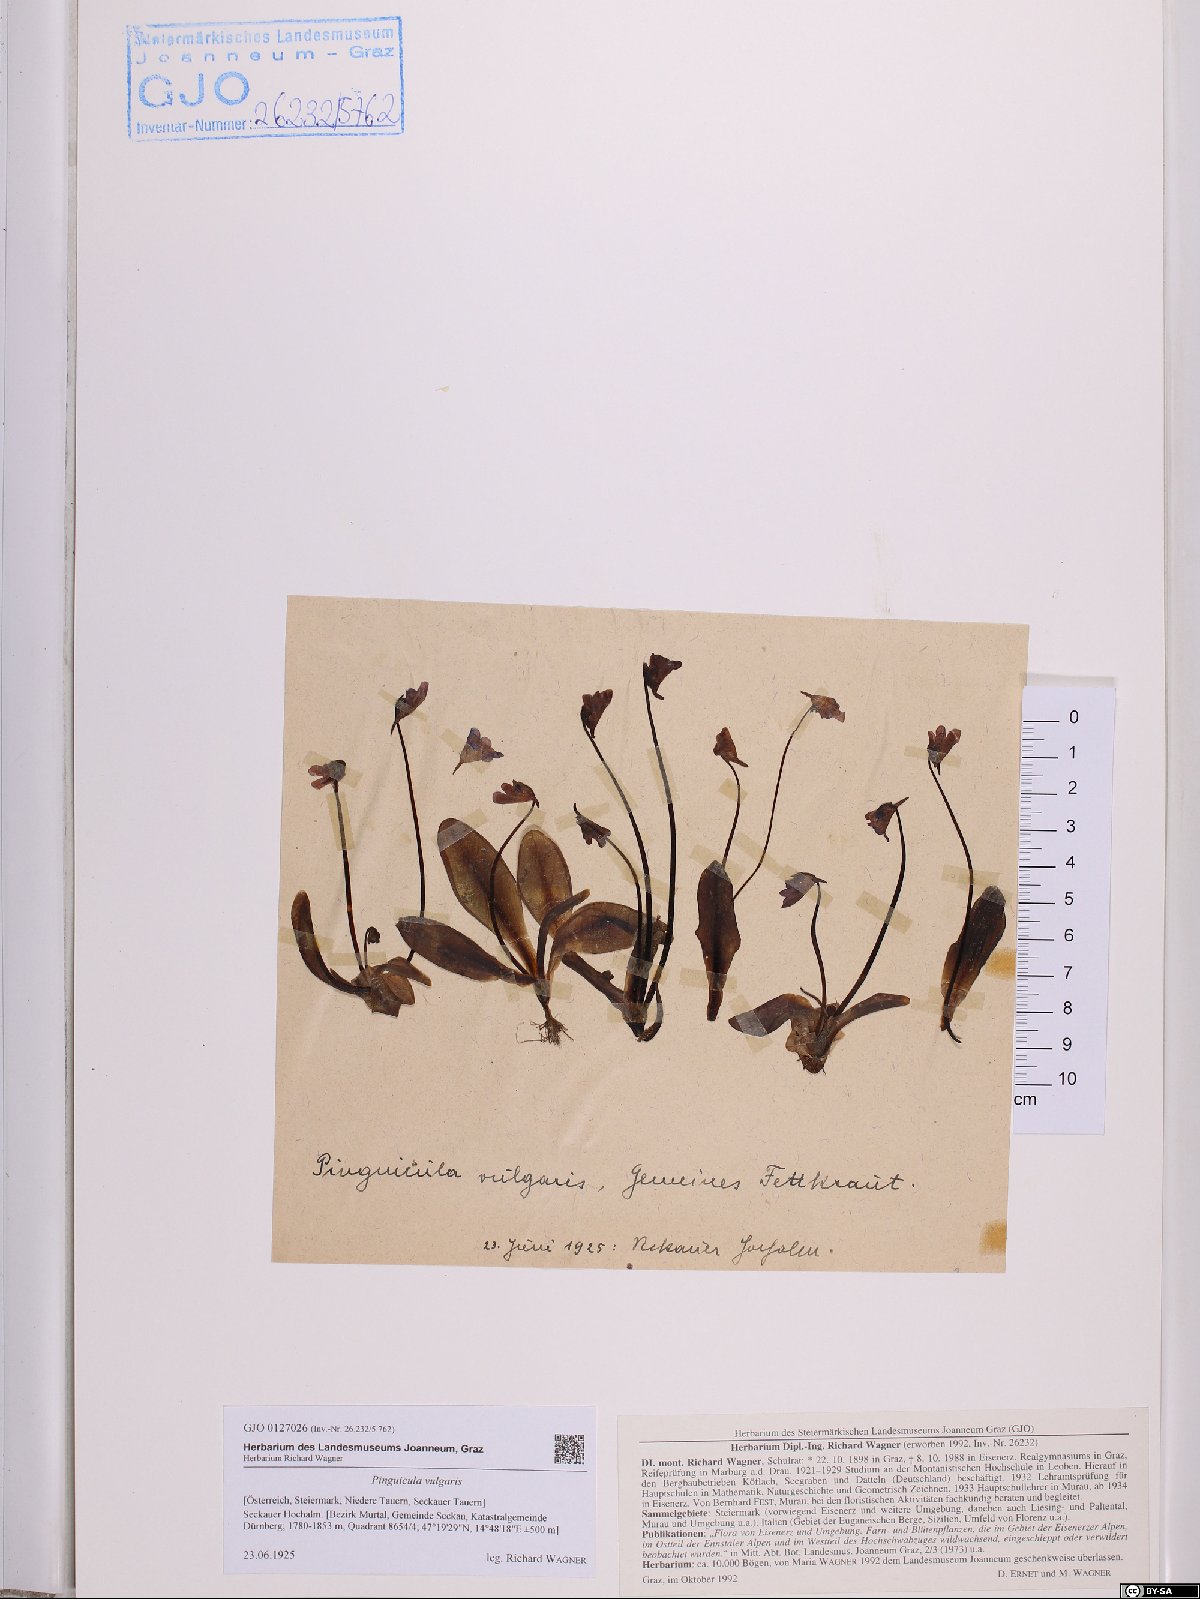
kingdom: Plantae
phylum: Tracheophyta
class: Magnoliopsida
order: Lamiales
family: Lentibulariaceae
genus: Pinguicula
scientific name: Pinguicula vulgaris
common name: Common butterwort
